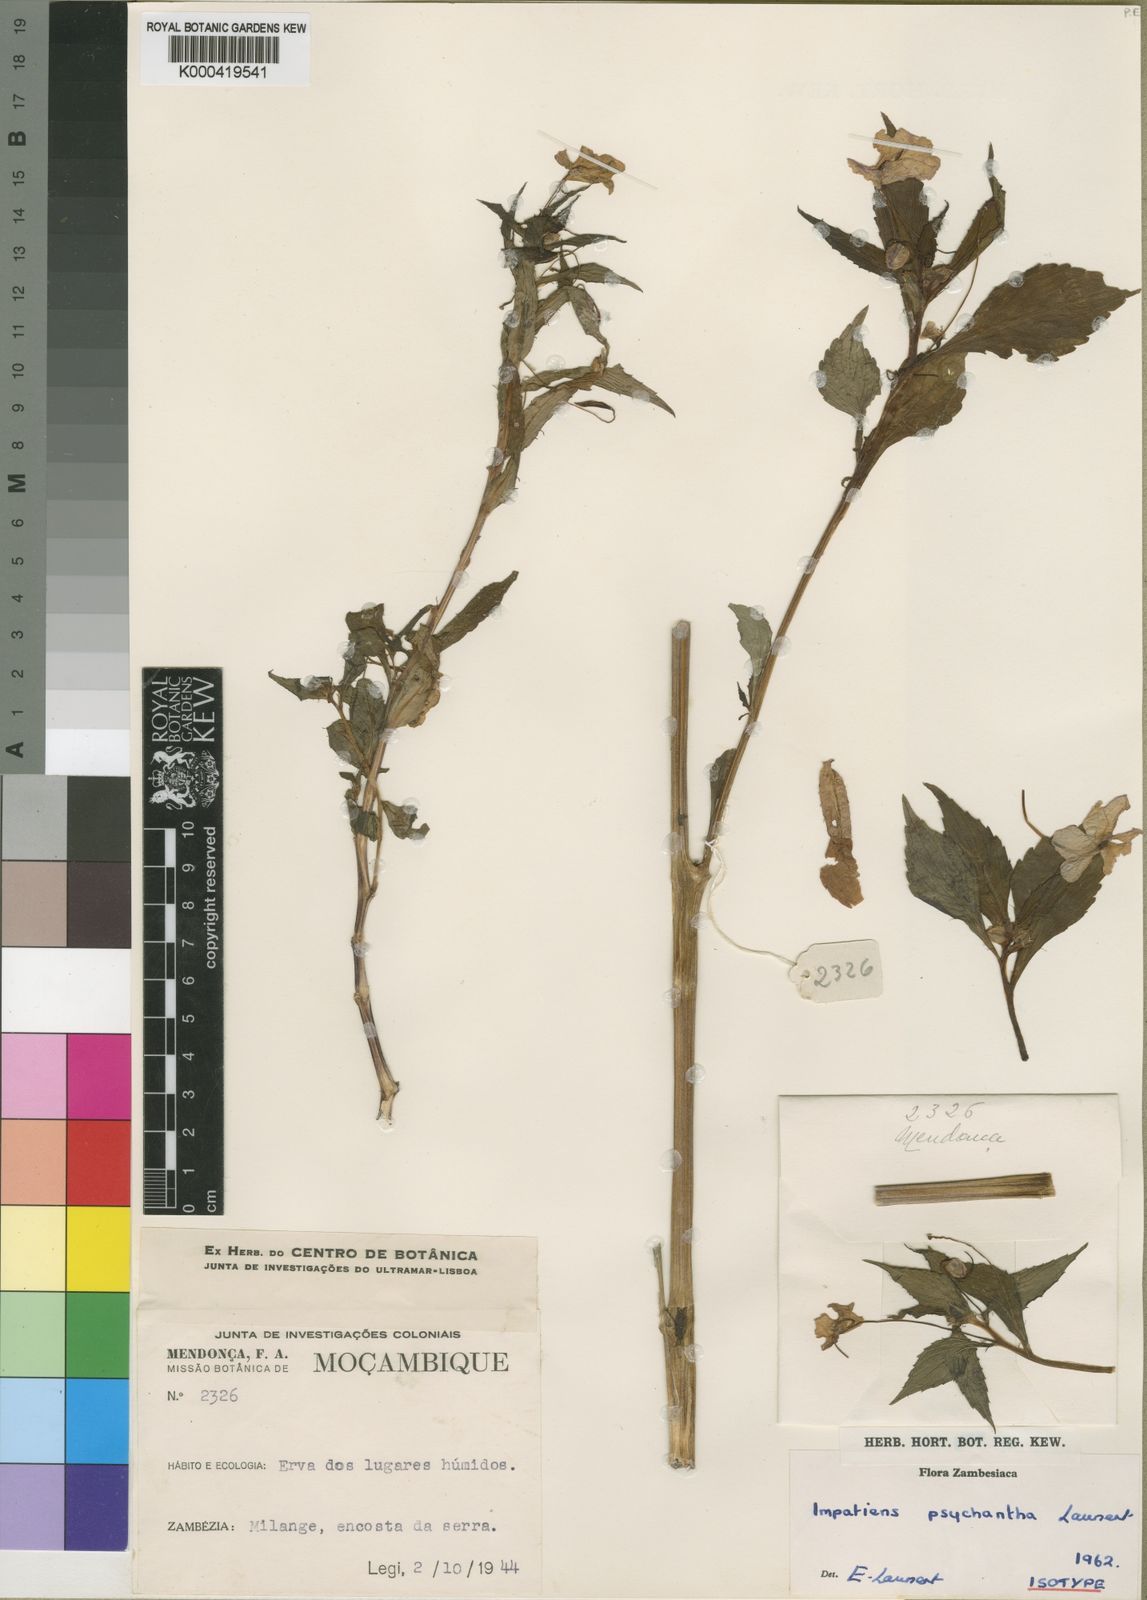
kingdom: Plantae
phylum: Tracheophyta
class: Magnoliopsida
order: Ericales
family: Balsaminaceae
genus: Impatiens
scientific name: Impatiens oreocallis
